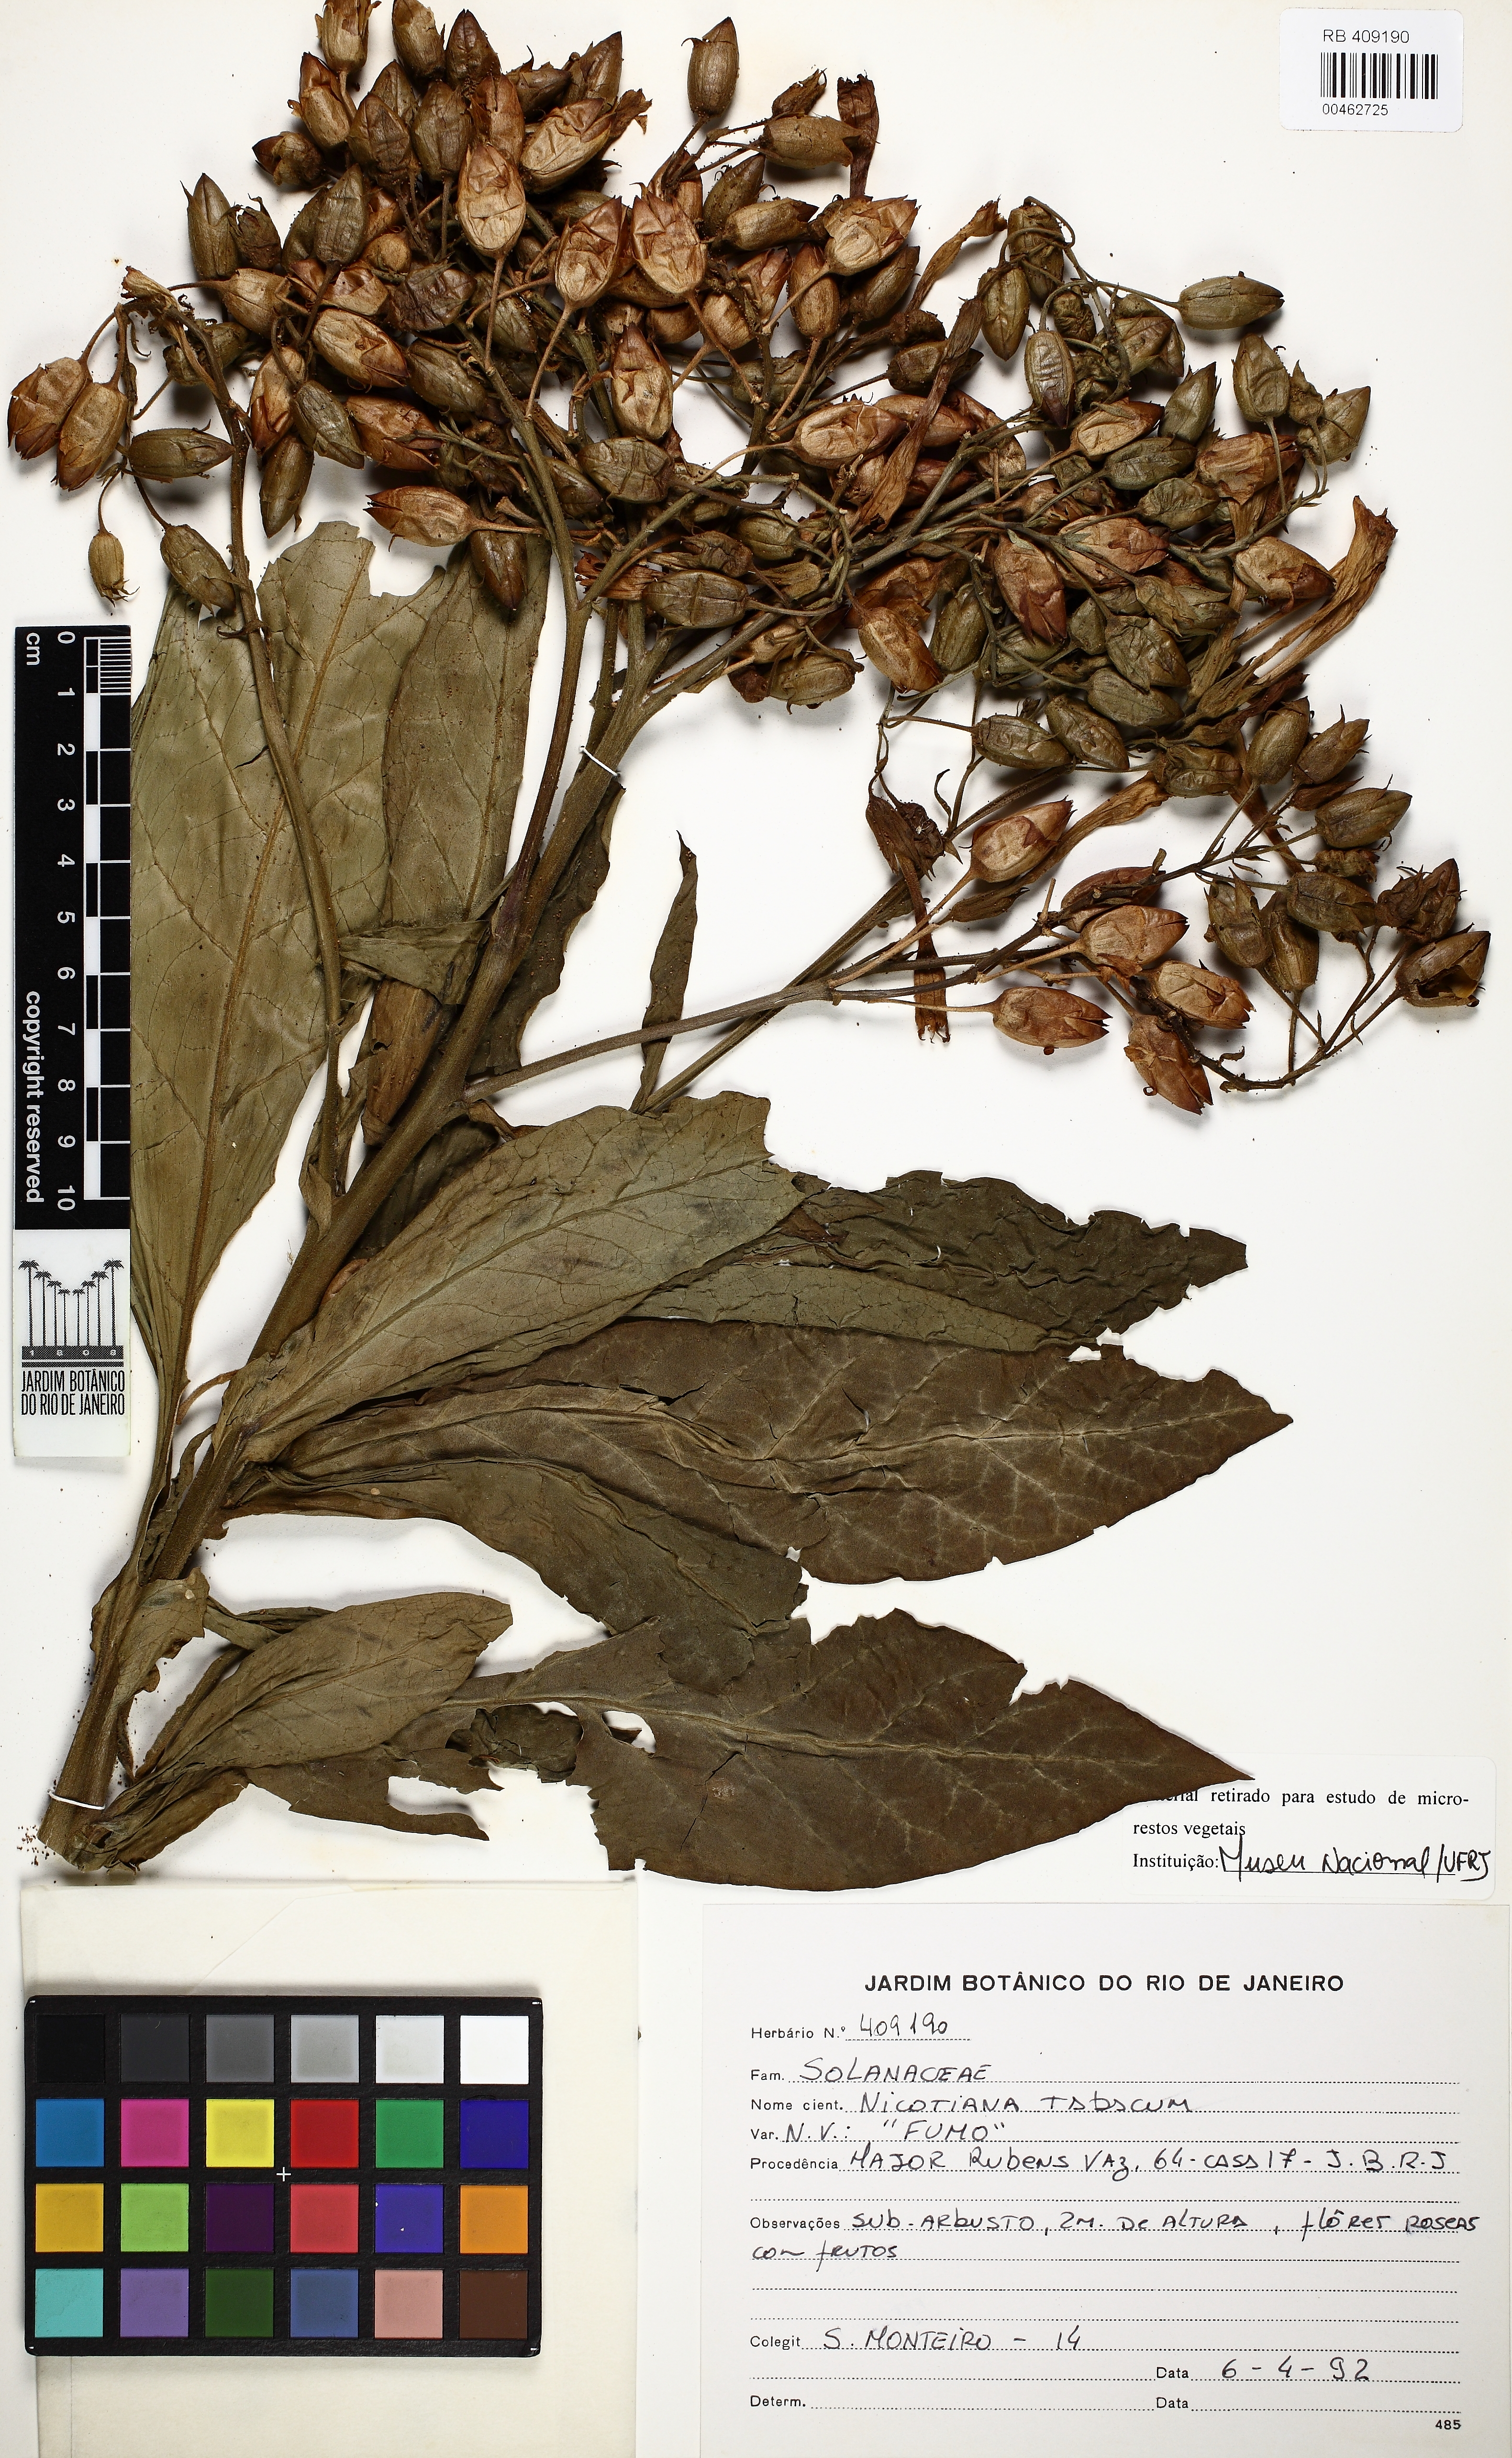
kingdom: Plantae
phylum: Tracheophyta
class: Magnoliopsida
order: Solanales
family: Solanaceae
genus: Nicotiana
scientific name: Nicotiana tabacum
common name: Tobacco
